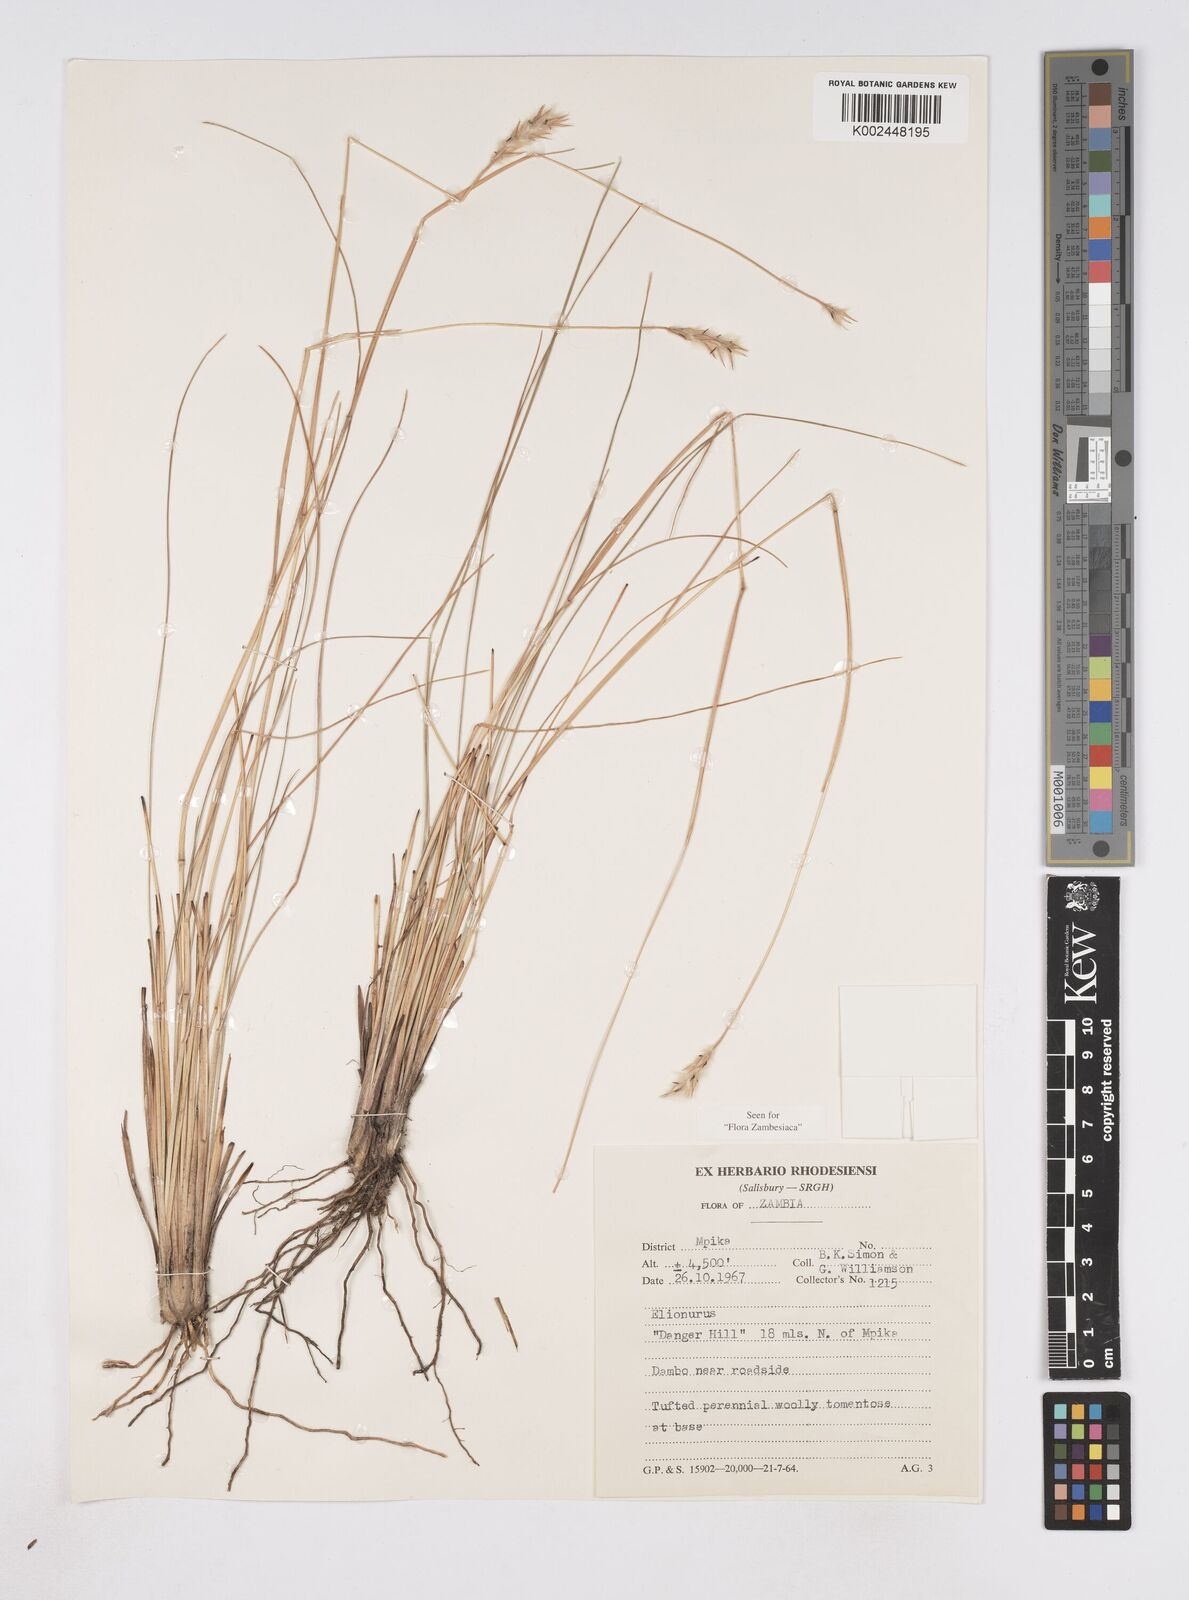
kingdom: Plantae
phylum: Tracheophyta
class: Liliopsida
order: Poales
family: Poaceae
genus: Elionurus
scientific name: Elionurus muticus
